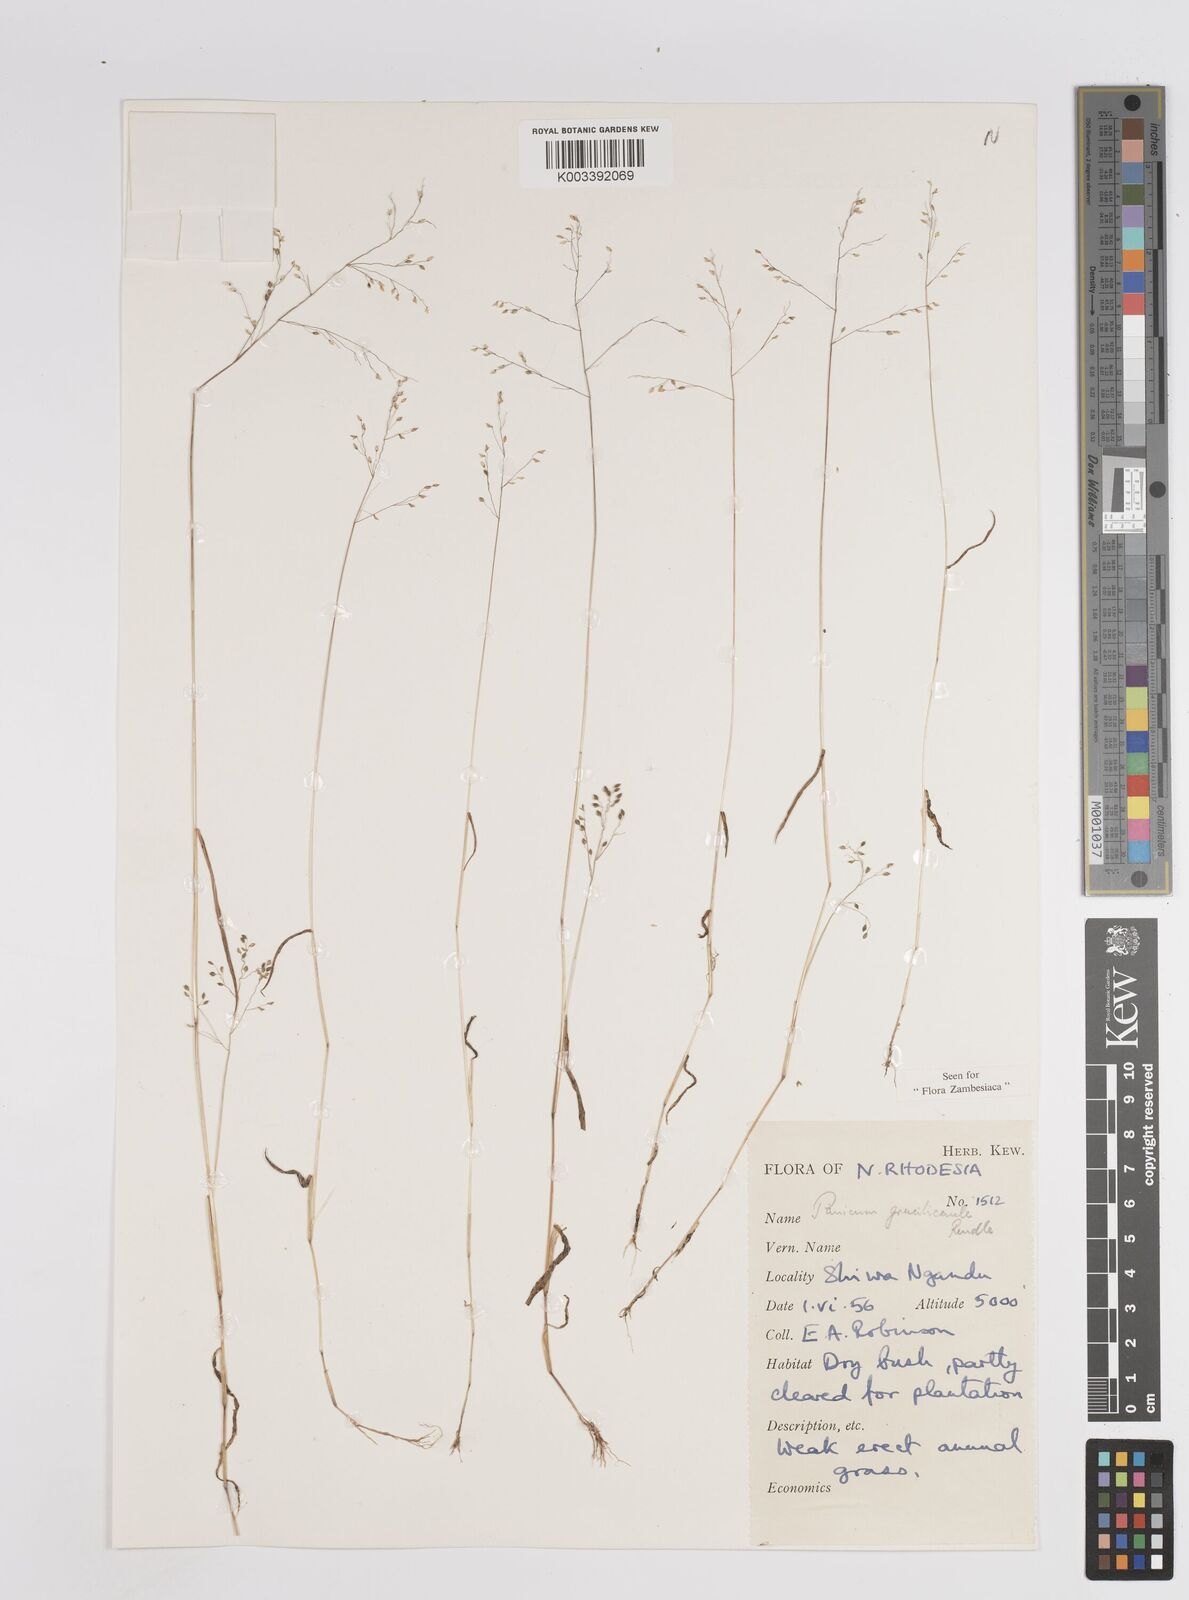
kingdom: Plantae
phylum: Tracheophyta
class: Liliopsida
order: Poales
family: Poaceae
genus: Trichanthecium
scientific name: Trichanthecium gracilicaule
